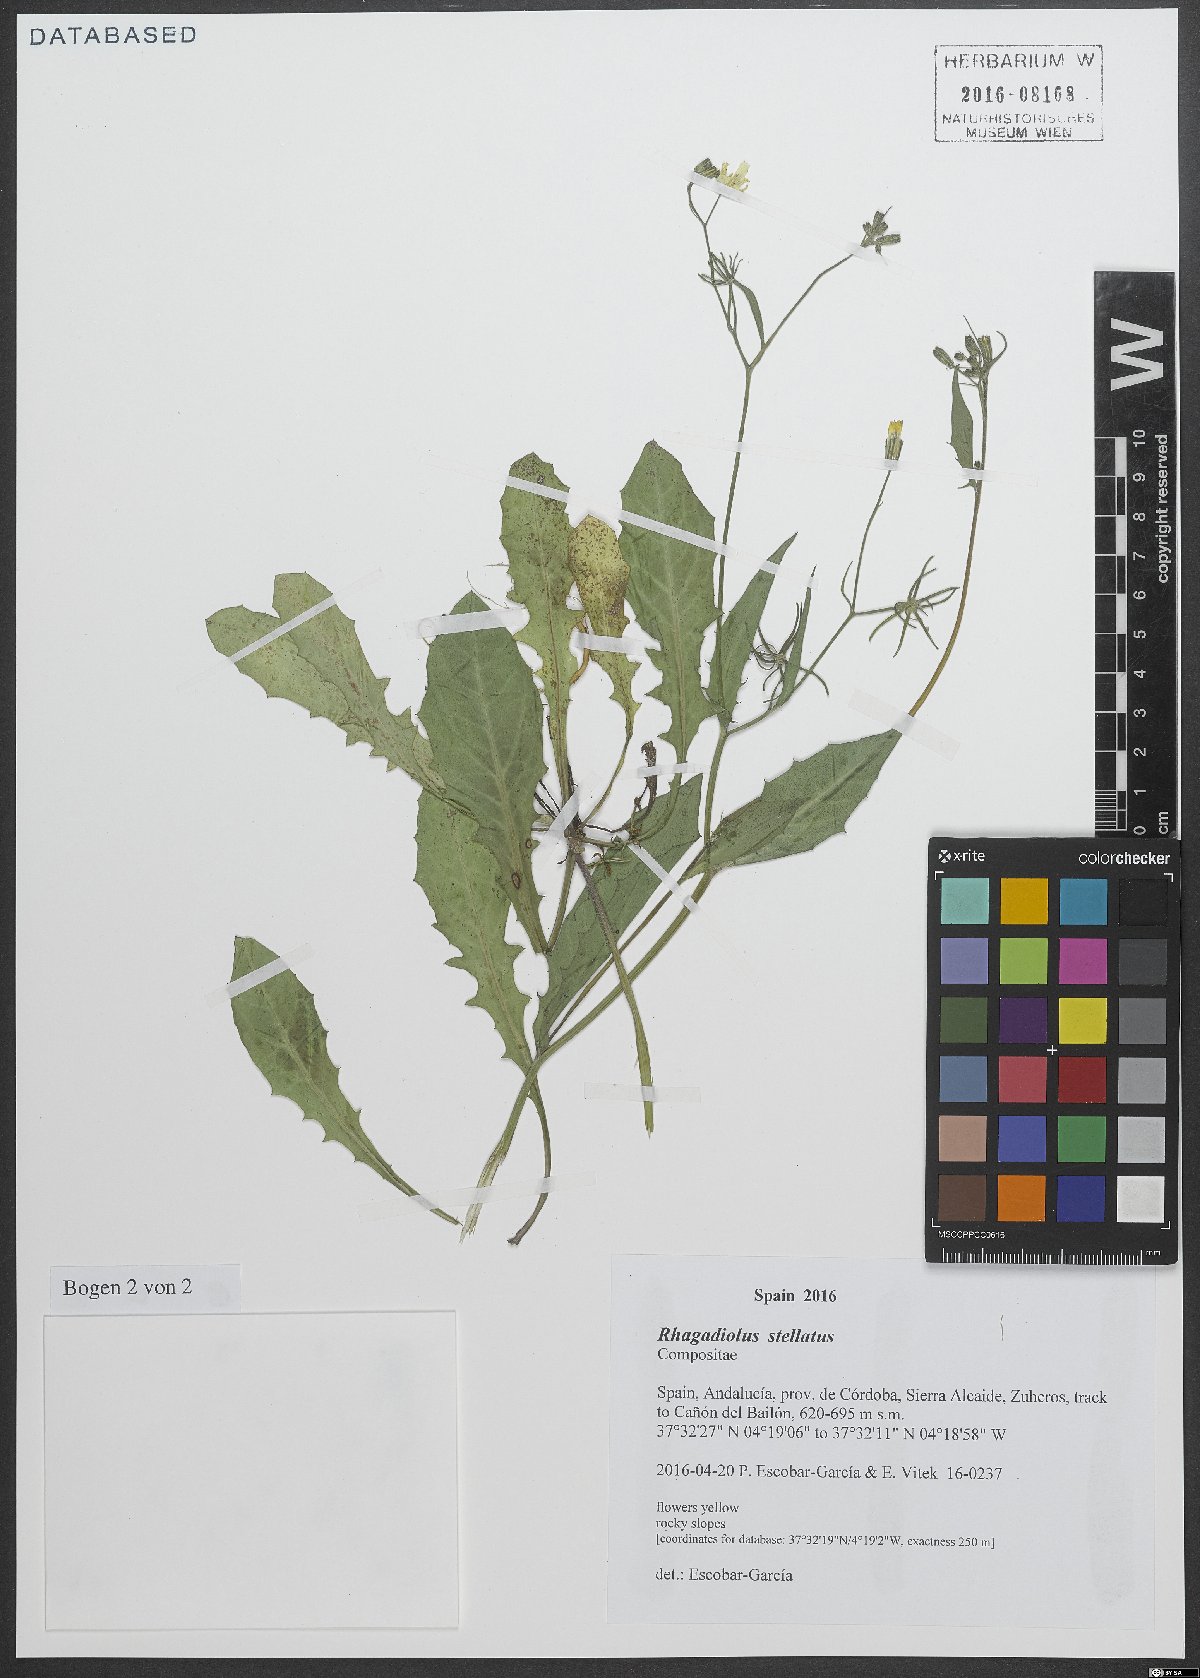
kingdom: Plantae
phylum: Tracheophyta
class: Magnoliopsida
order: Asterales
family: Asteraceae
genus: Rhagadiolus
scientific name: Rhagadiolus stellatus
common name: Star hawkbit
